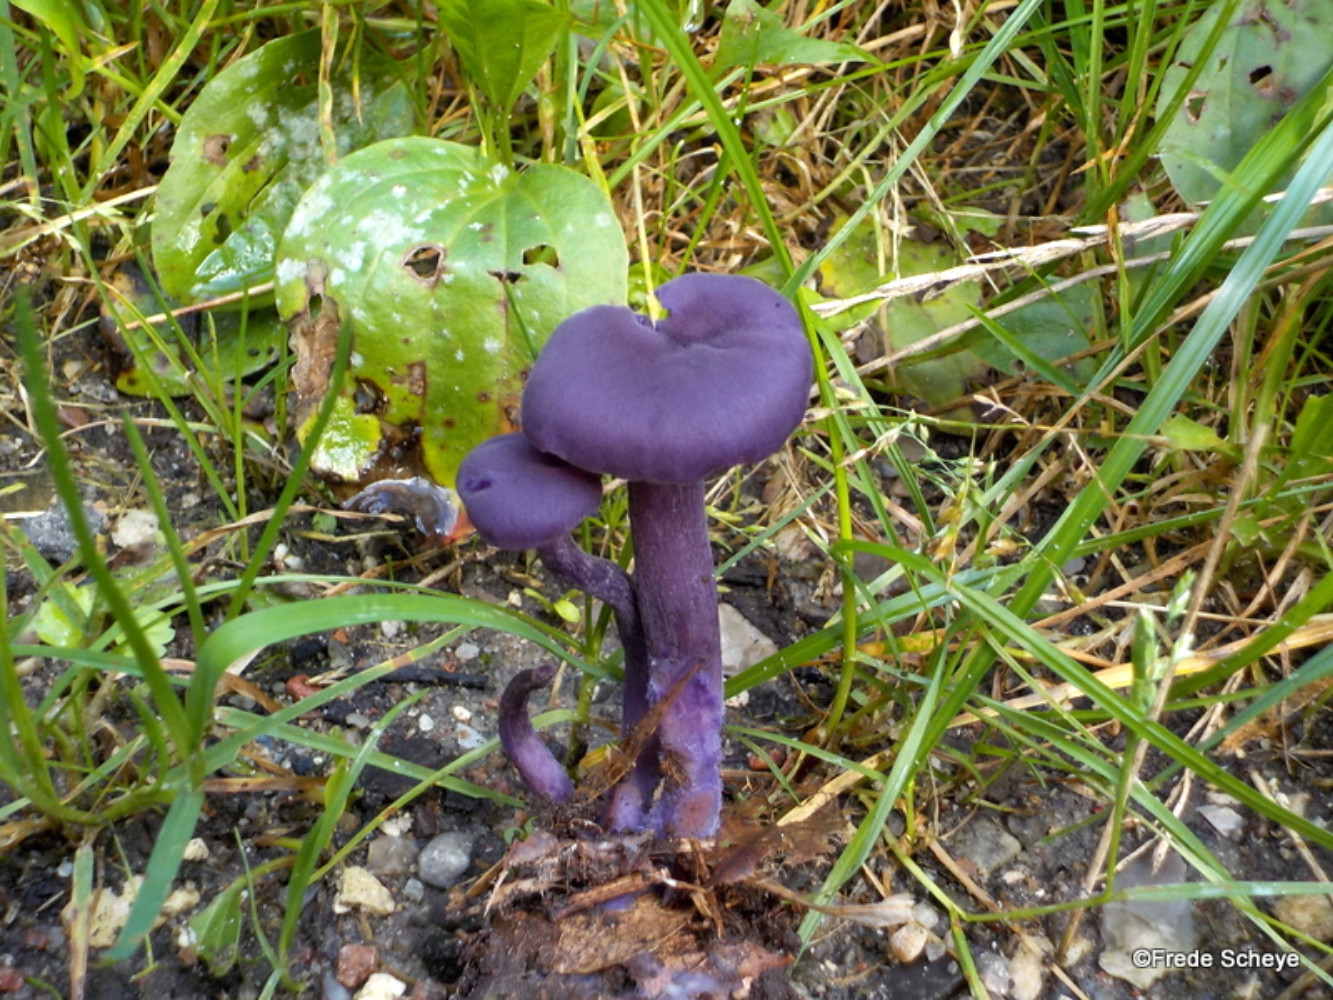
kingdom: Fungi
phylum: Basidiomycota
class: Agaricomycetes
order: Agaricales
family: Hydnangiaceae
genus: Laccaria
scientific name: Laccaria amethystina
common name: violet ametysthat
